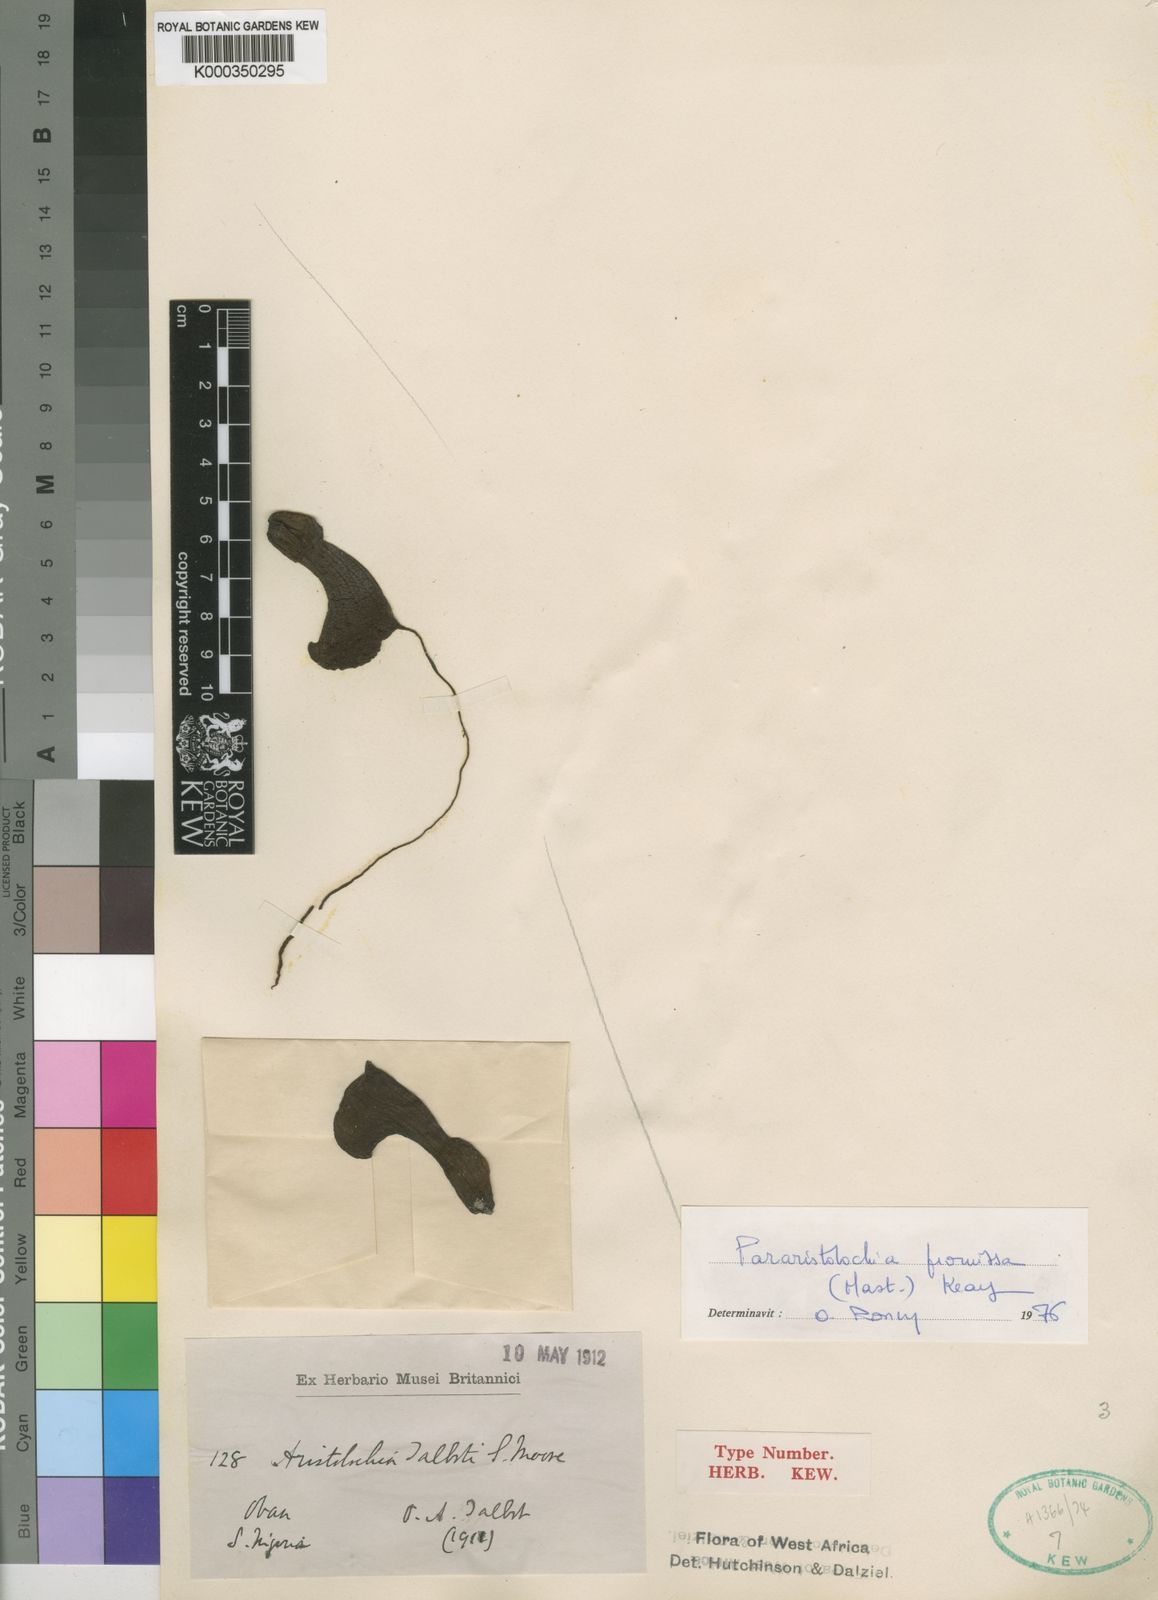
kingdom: Plantae
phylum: Tracheophyta
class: Magnoliopsida
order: Piperales
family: Aristolochiaceae
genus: Aristolochia
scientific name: Aristolochia promissa
